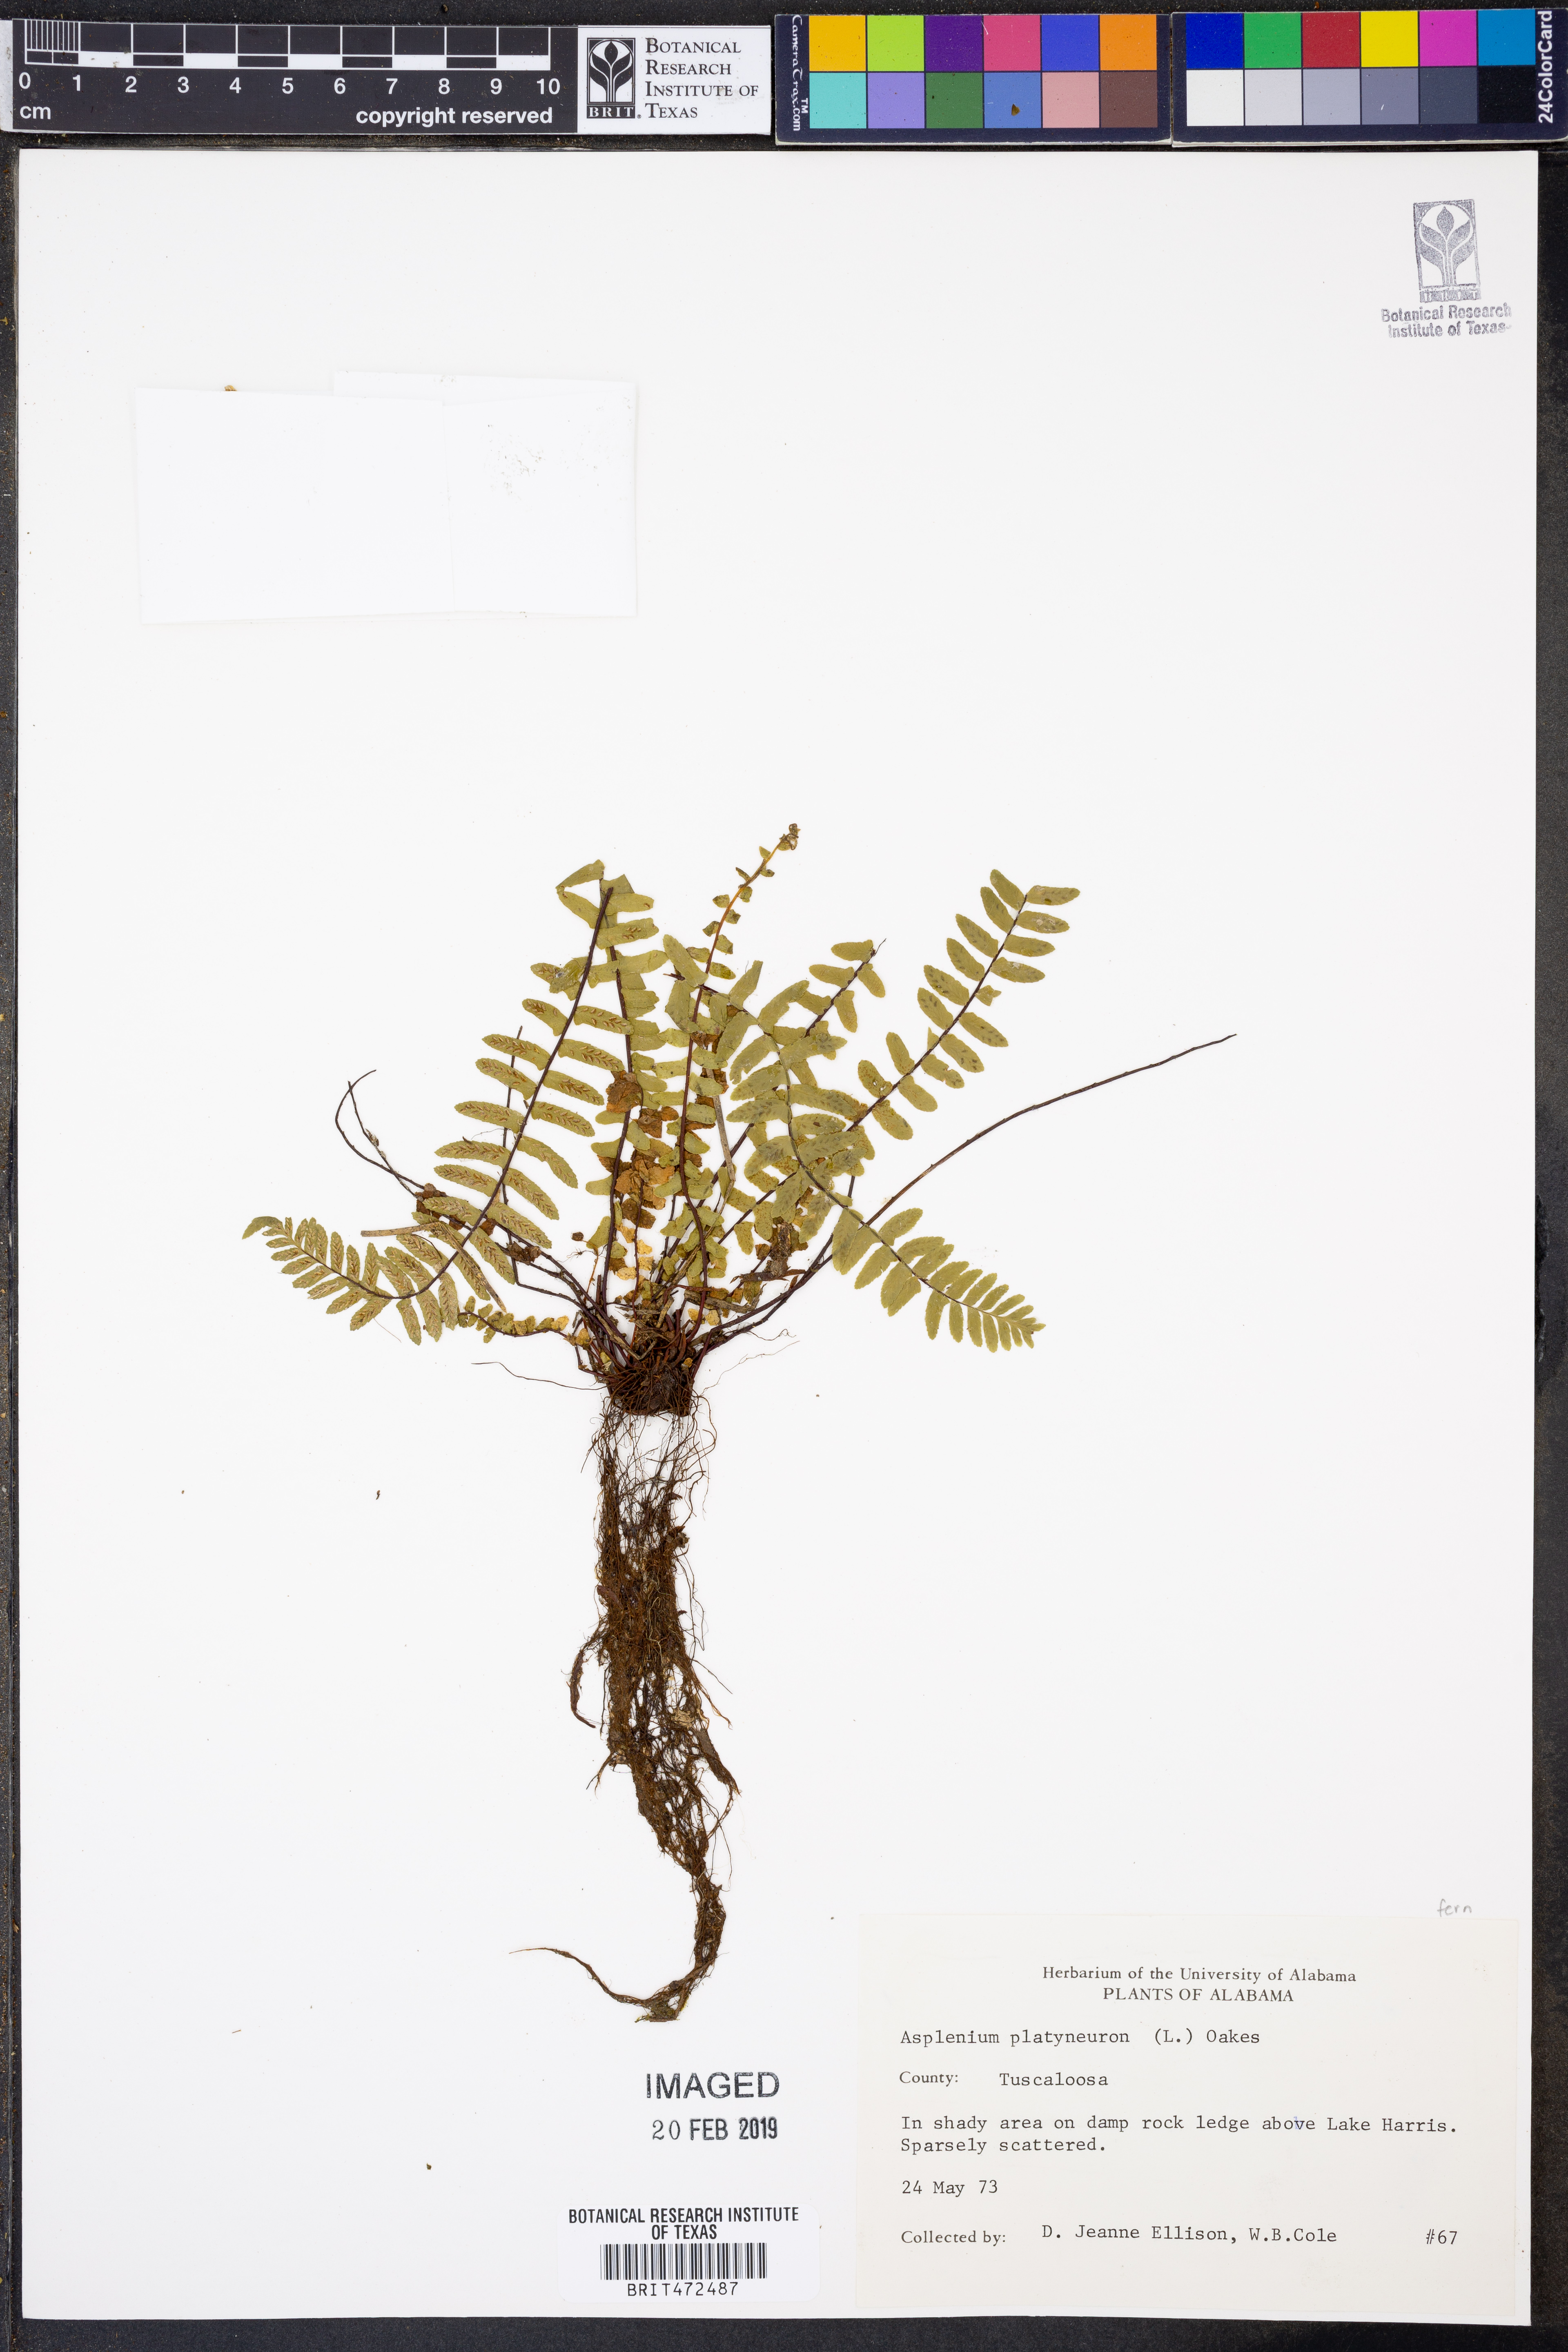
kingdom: Plantae
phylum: Tracheophyta
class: Polypodiopsida
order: Polypodiales
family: Aspleniaceae
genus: Asplenium
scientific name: Asplenium platyneuron
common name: Ebony spleenwort
